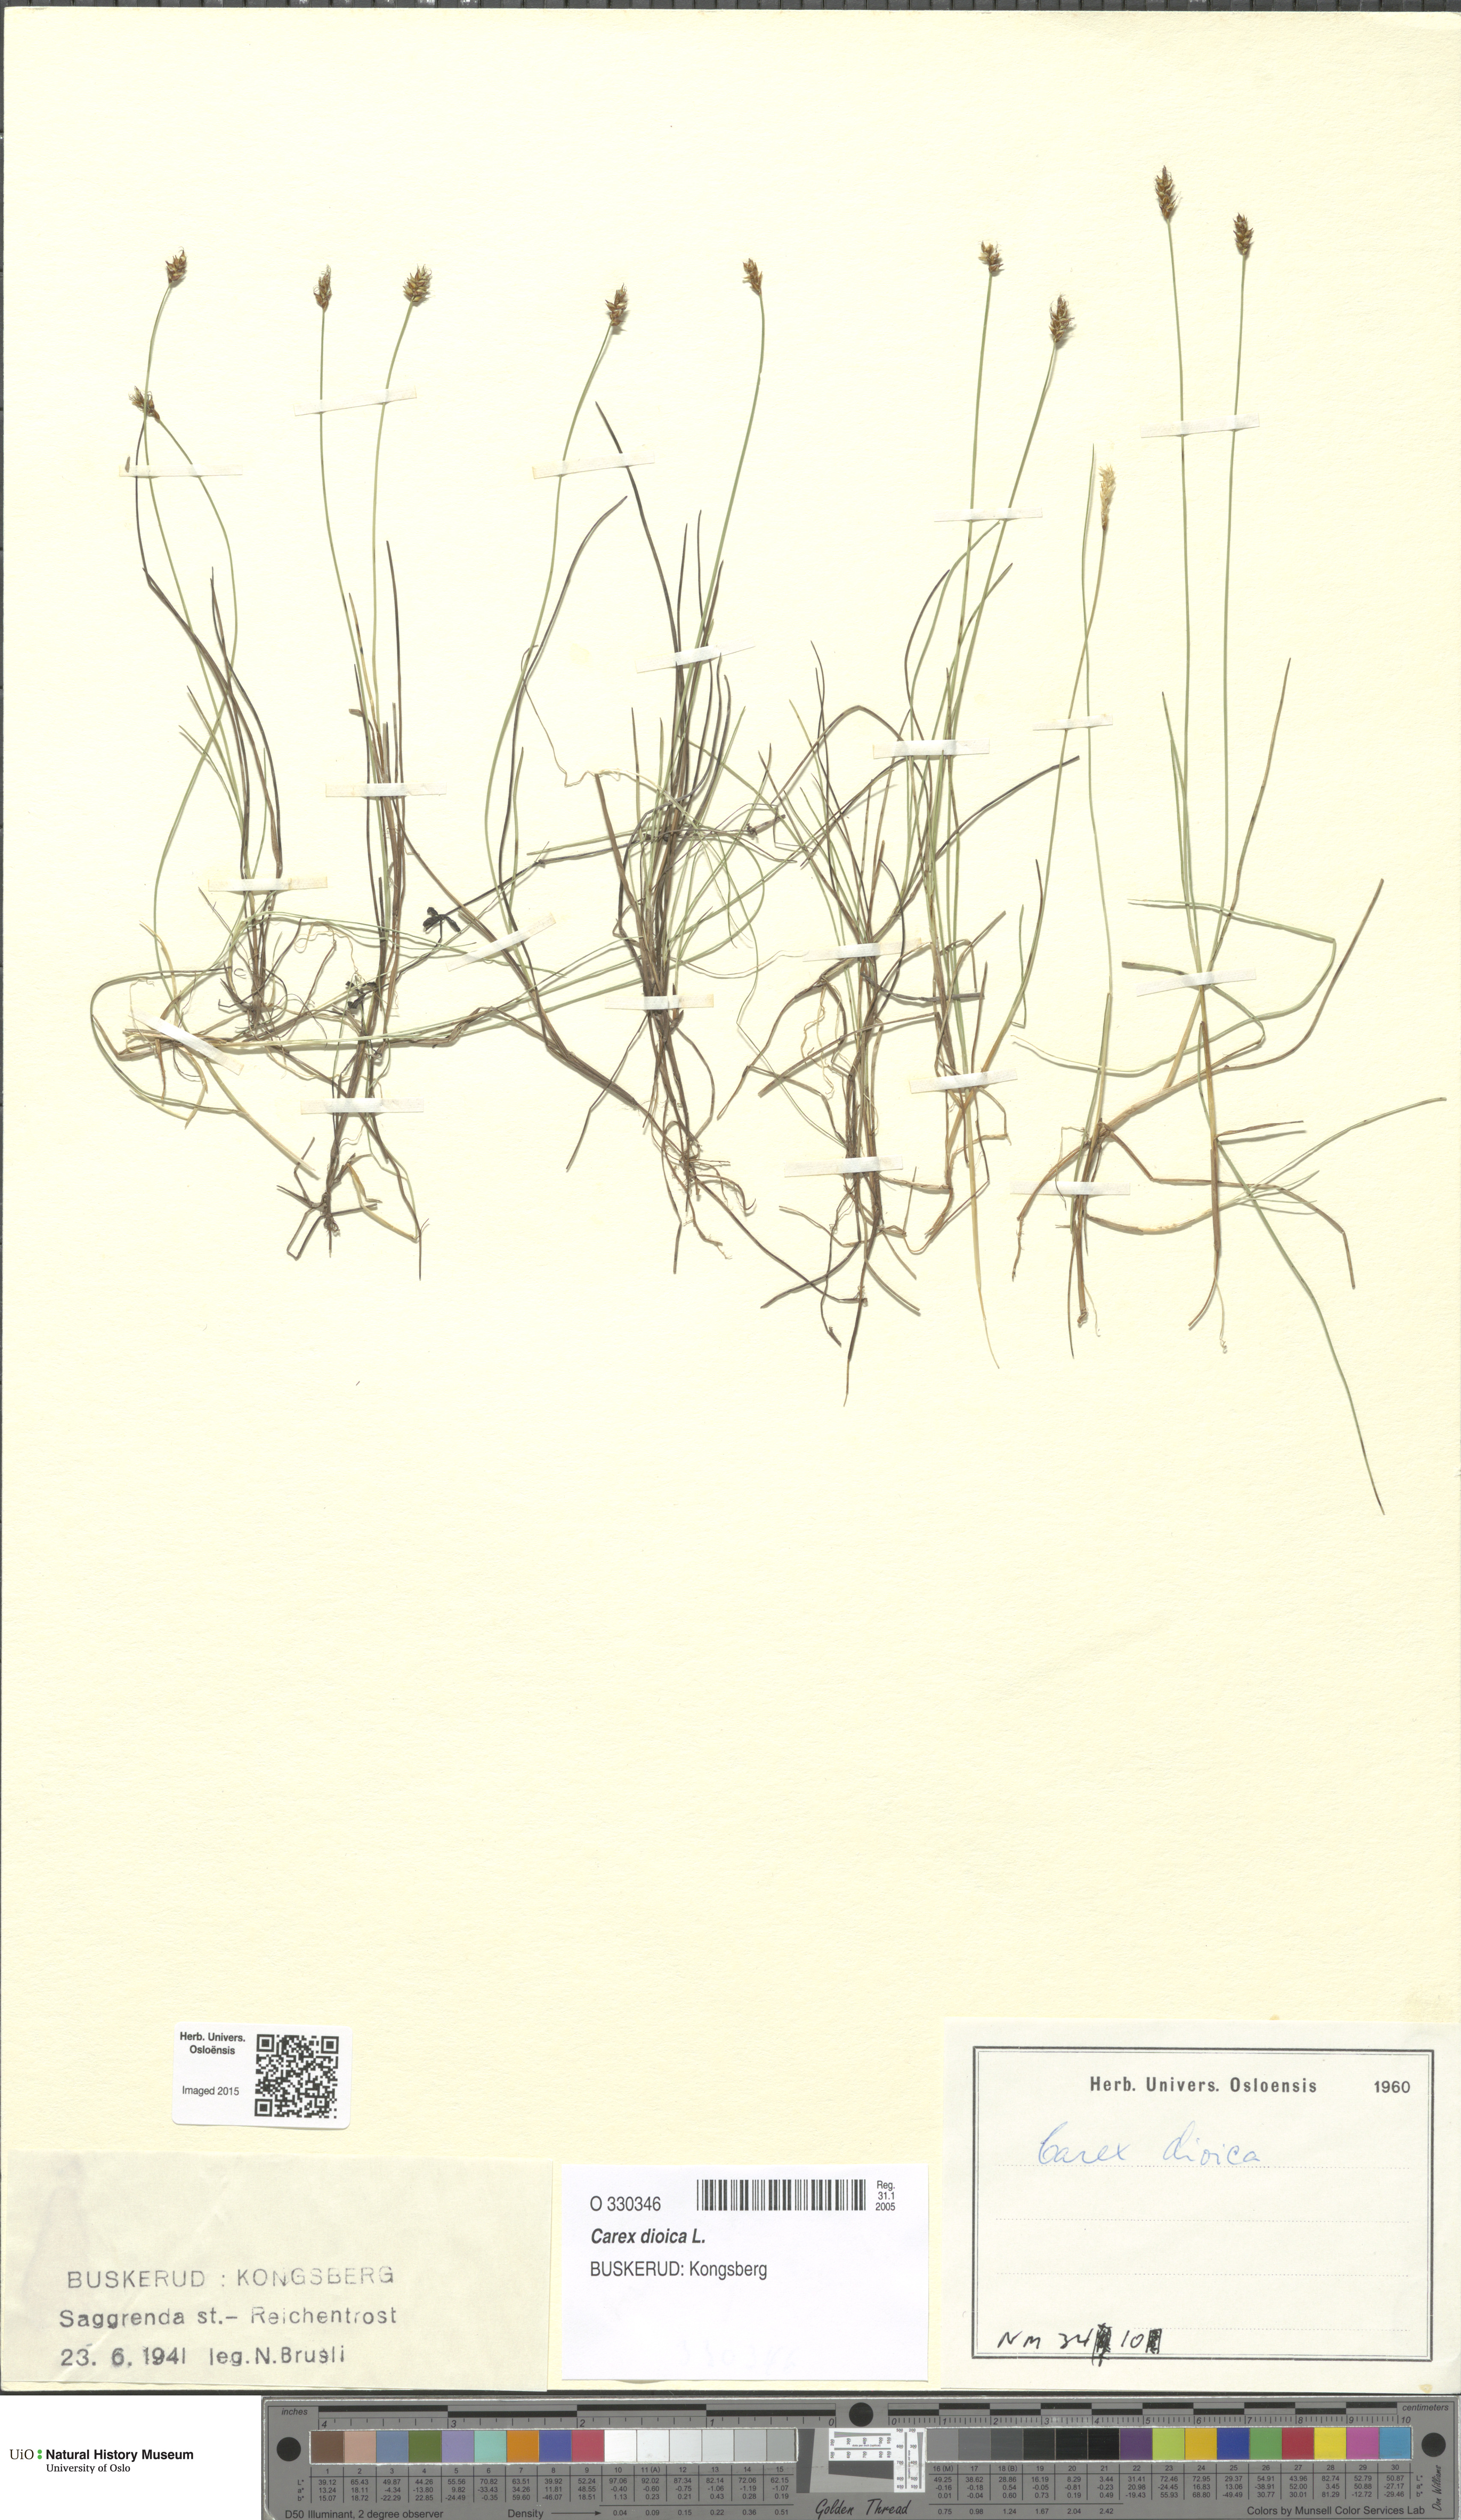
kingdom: Plantae
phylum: Tracheophyta
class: Liliopsida
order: Poales
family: Cyperaceae
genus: Carex
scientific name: Carex dioica
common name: Dioecious sedge
